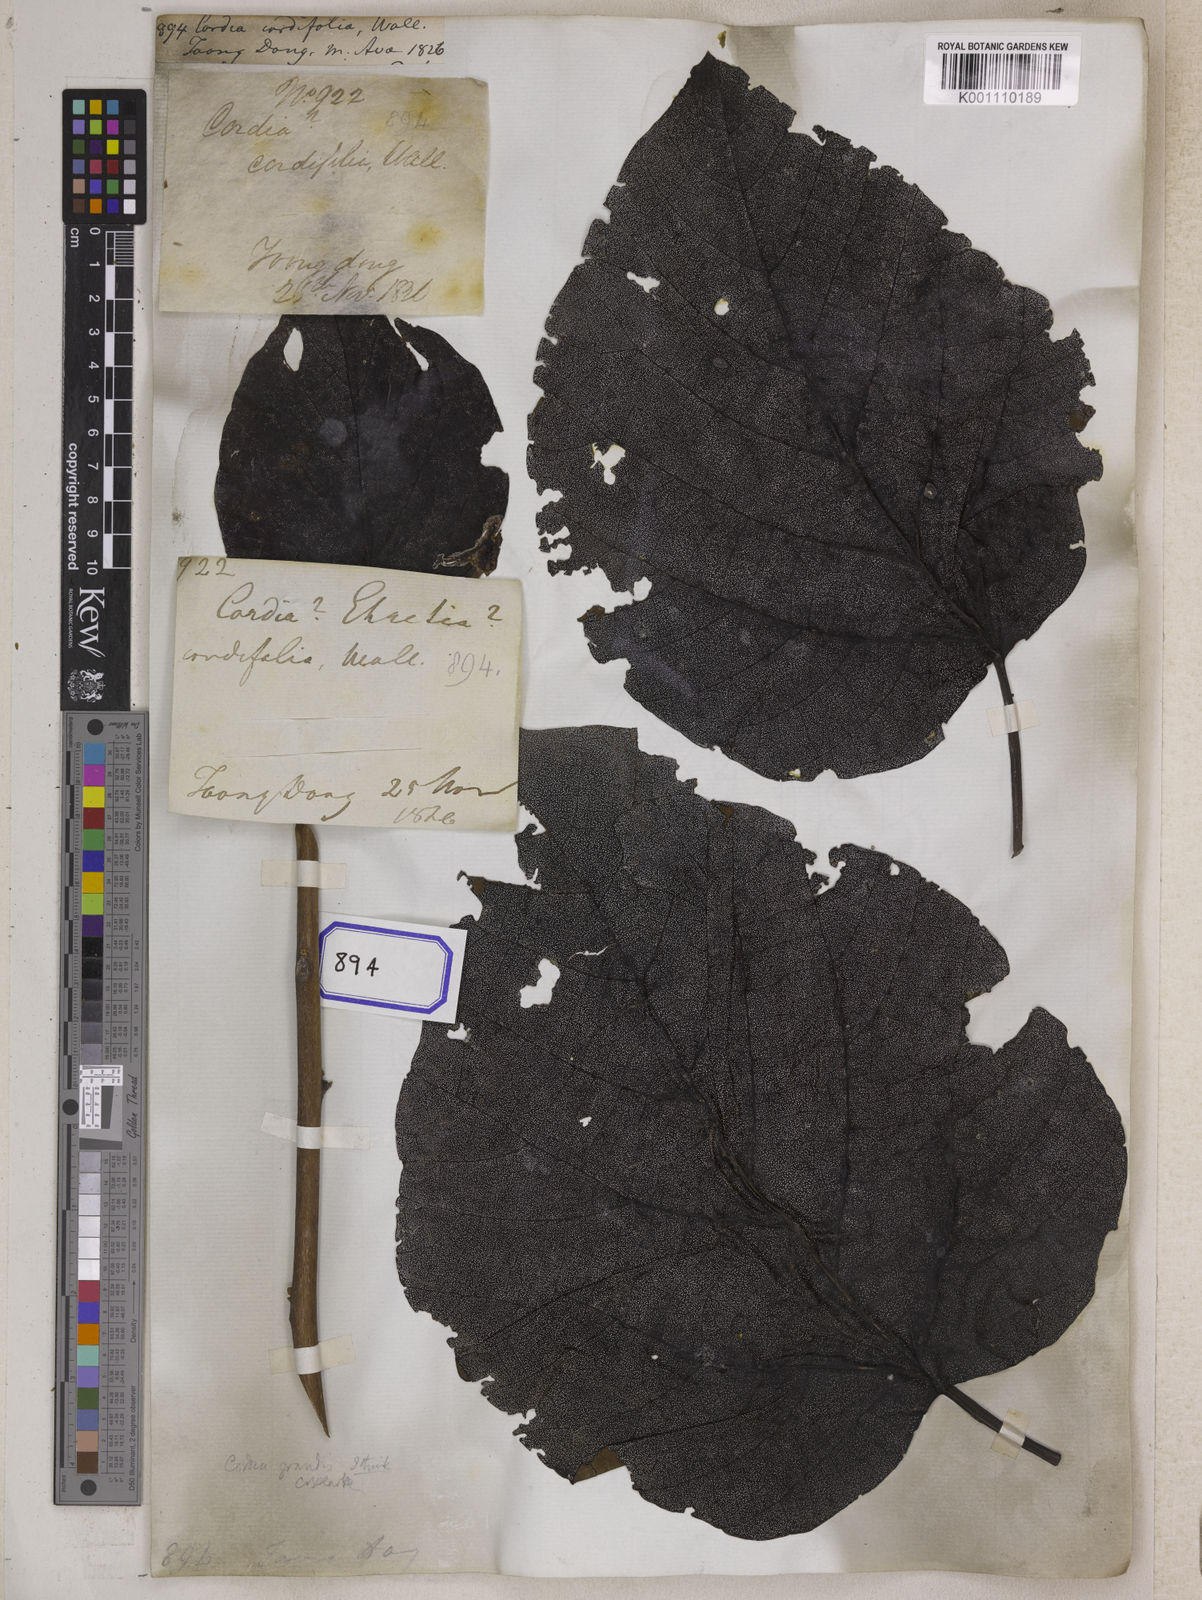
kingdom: Plantae
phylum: Tracheophyta
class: Magnoliopsida
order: Boraginales
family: Cordiaceae
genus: Cordia
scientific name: Cordia
